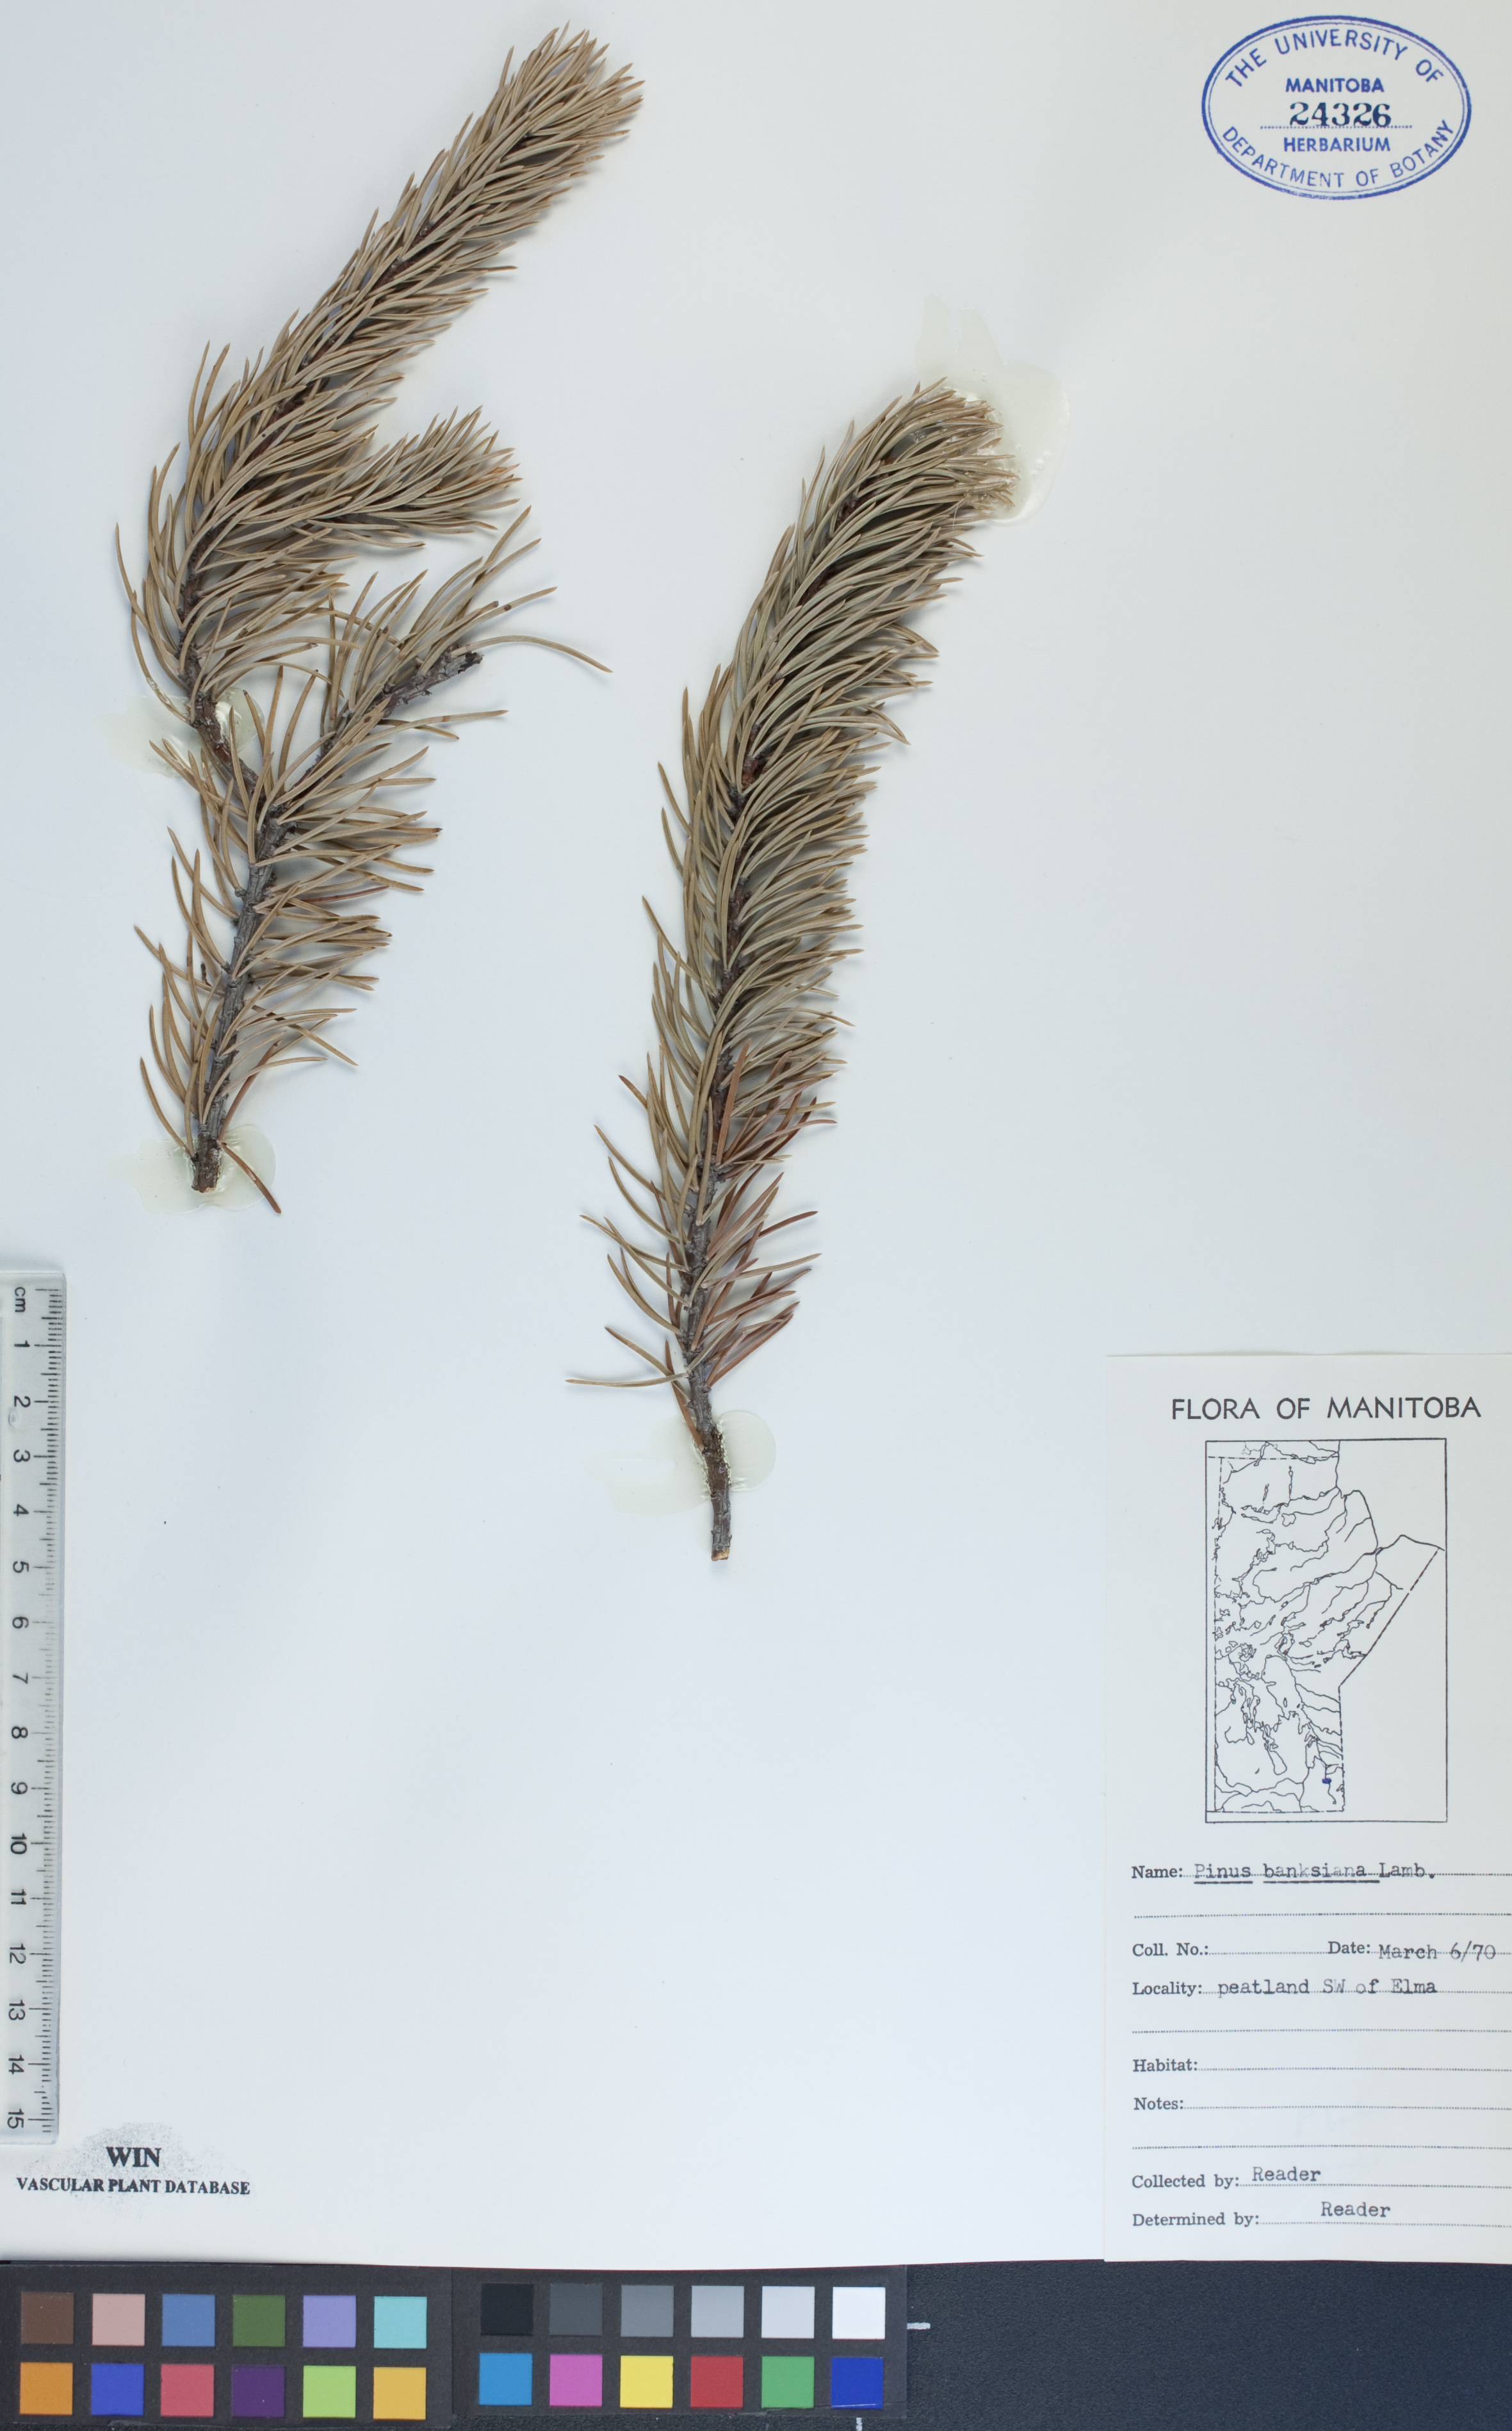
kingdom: Plantae
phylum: Tracheophyta
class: Pinopsida
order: Pinales
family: Pinaceae
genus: Pinus
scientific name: Pinus banksiana
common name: Jack pine
